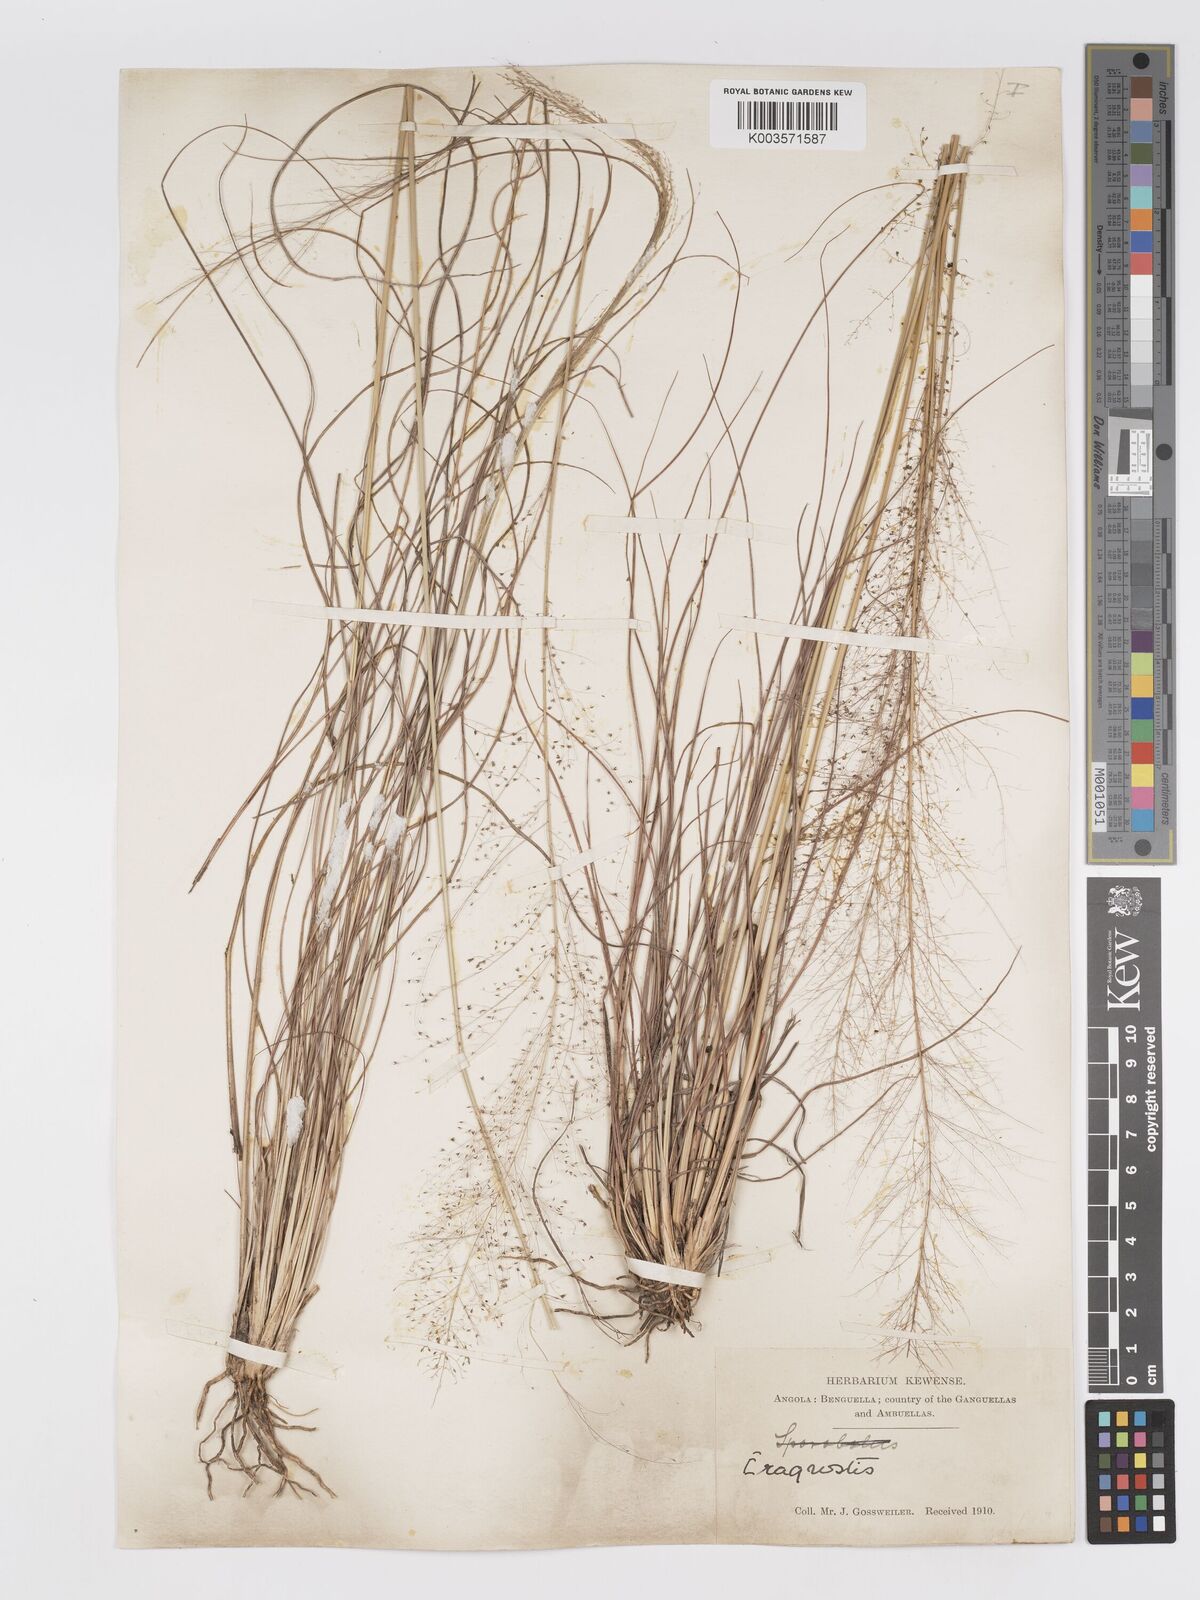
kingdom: Plantae
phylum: Tracheophyta
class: Liliopsida
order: Poales
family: Poaceae
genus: Eragrostis
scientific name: Eragrostis habrantha
